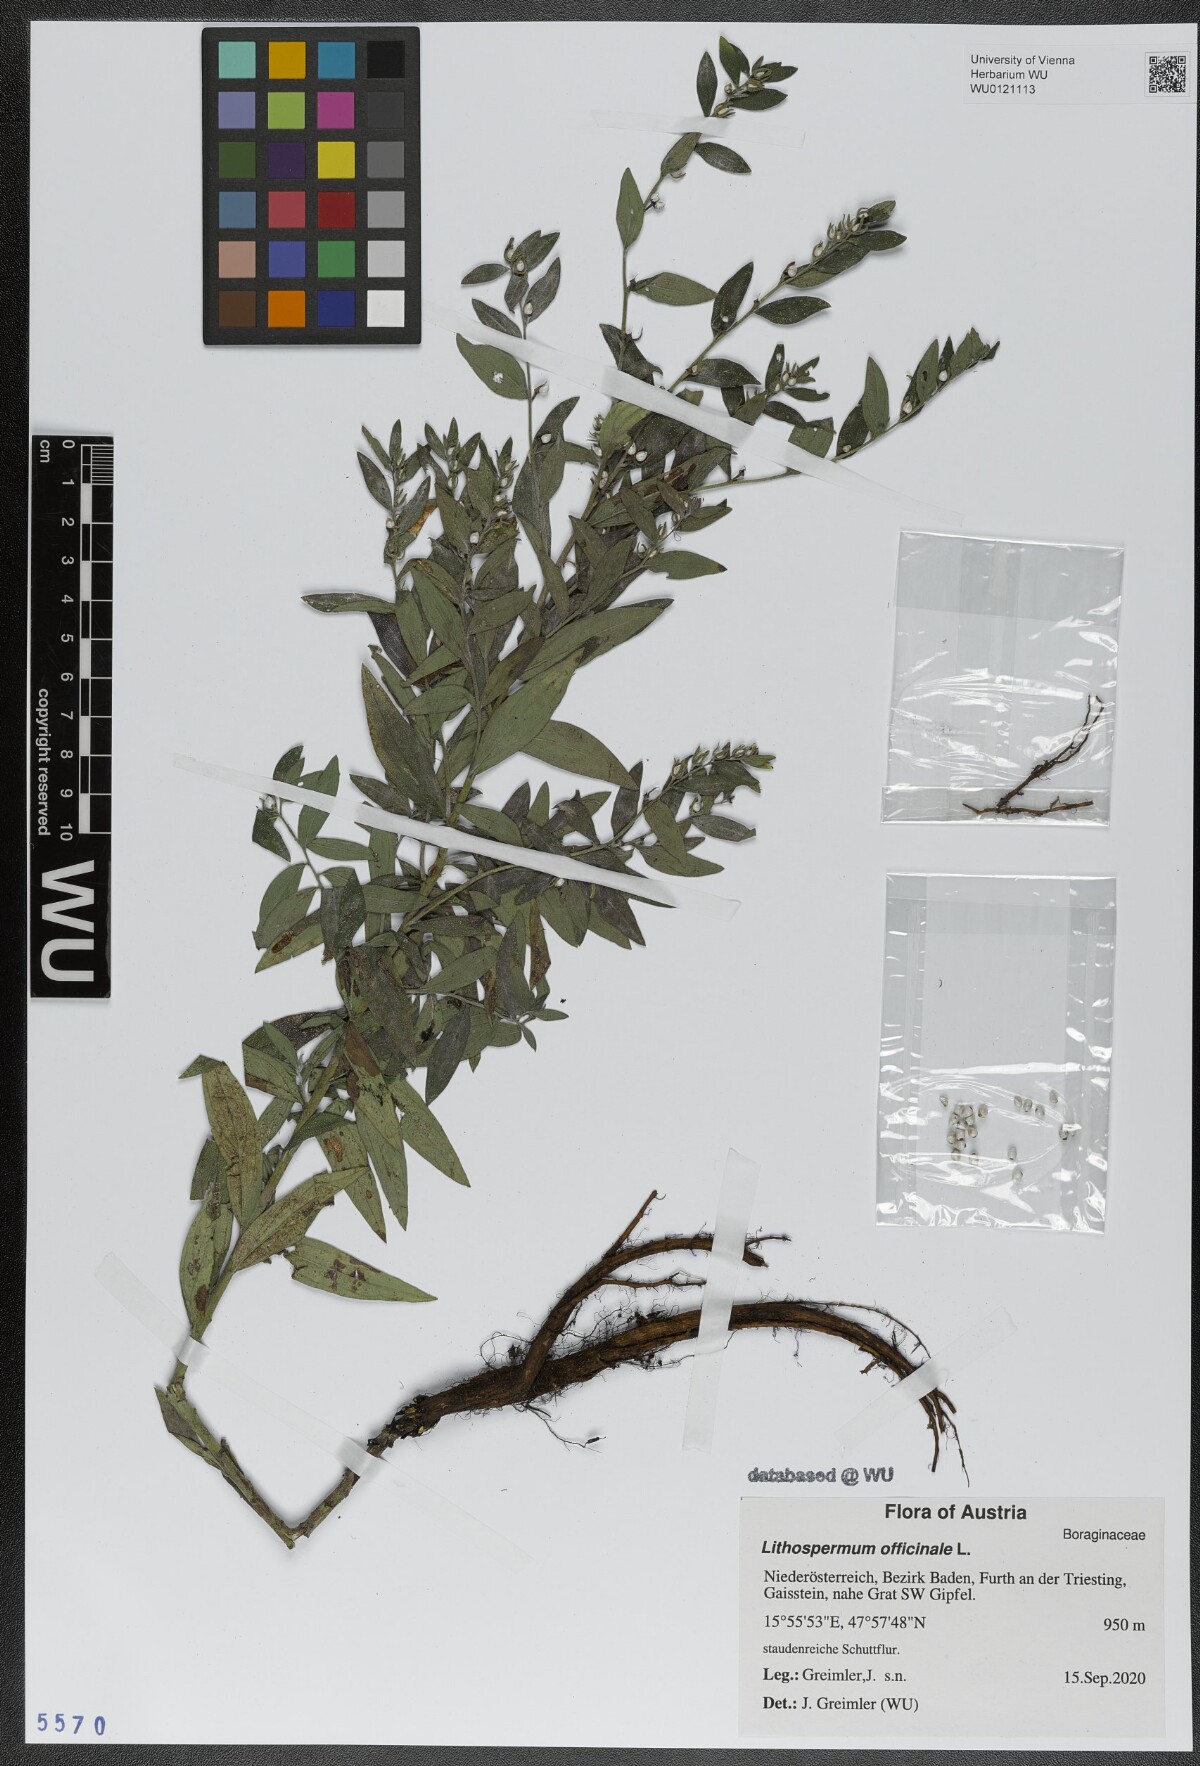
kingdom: Plantae
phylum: Tracheophyta
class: Magnoliopsida
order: Boraginales
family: Boraginaceae
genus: Lithospermum
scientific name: Lithospermum officinale
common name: Common gromwell
